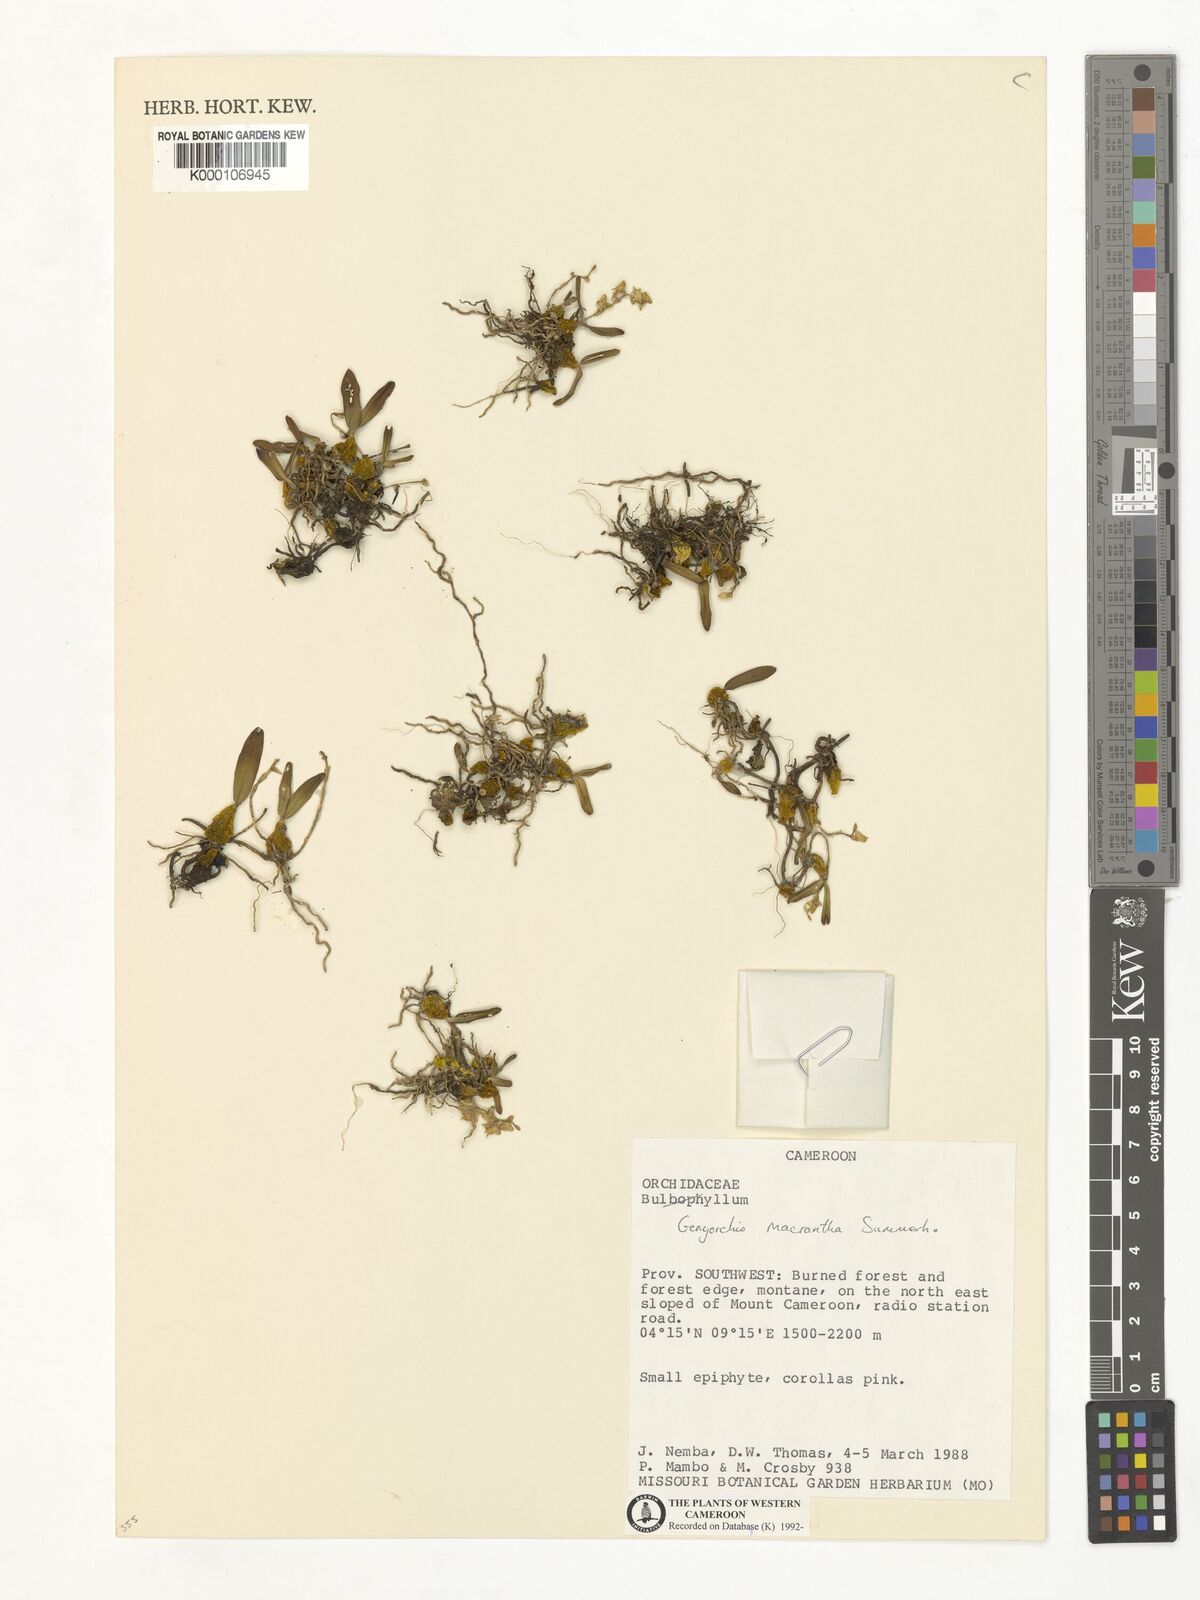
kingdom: Plantae
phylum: Tracheophyta
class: Liliopsida
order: Asparagales
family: Orchidaceae
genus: Bulbophyllum
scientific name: Bulbophyllum Genyorchis macrantha
